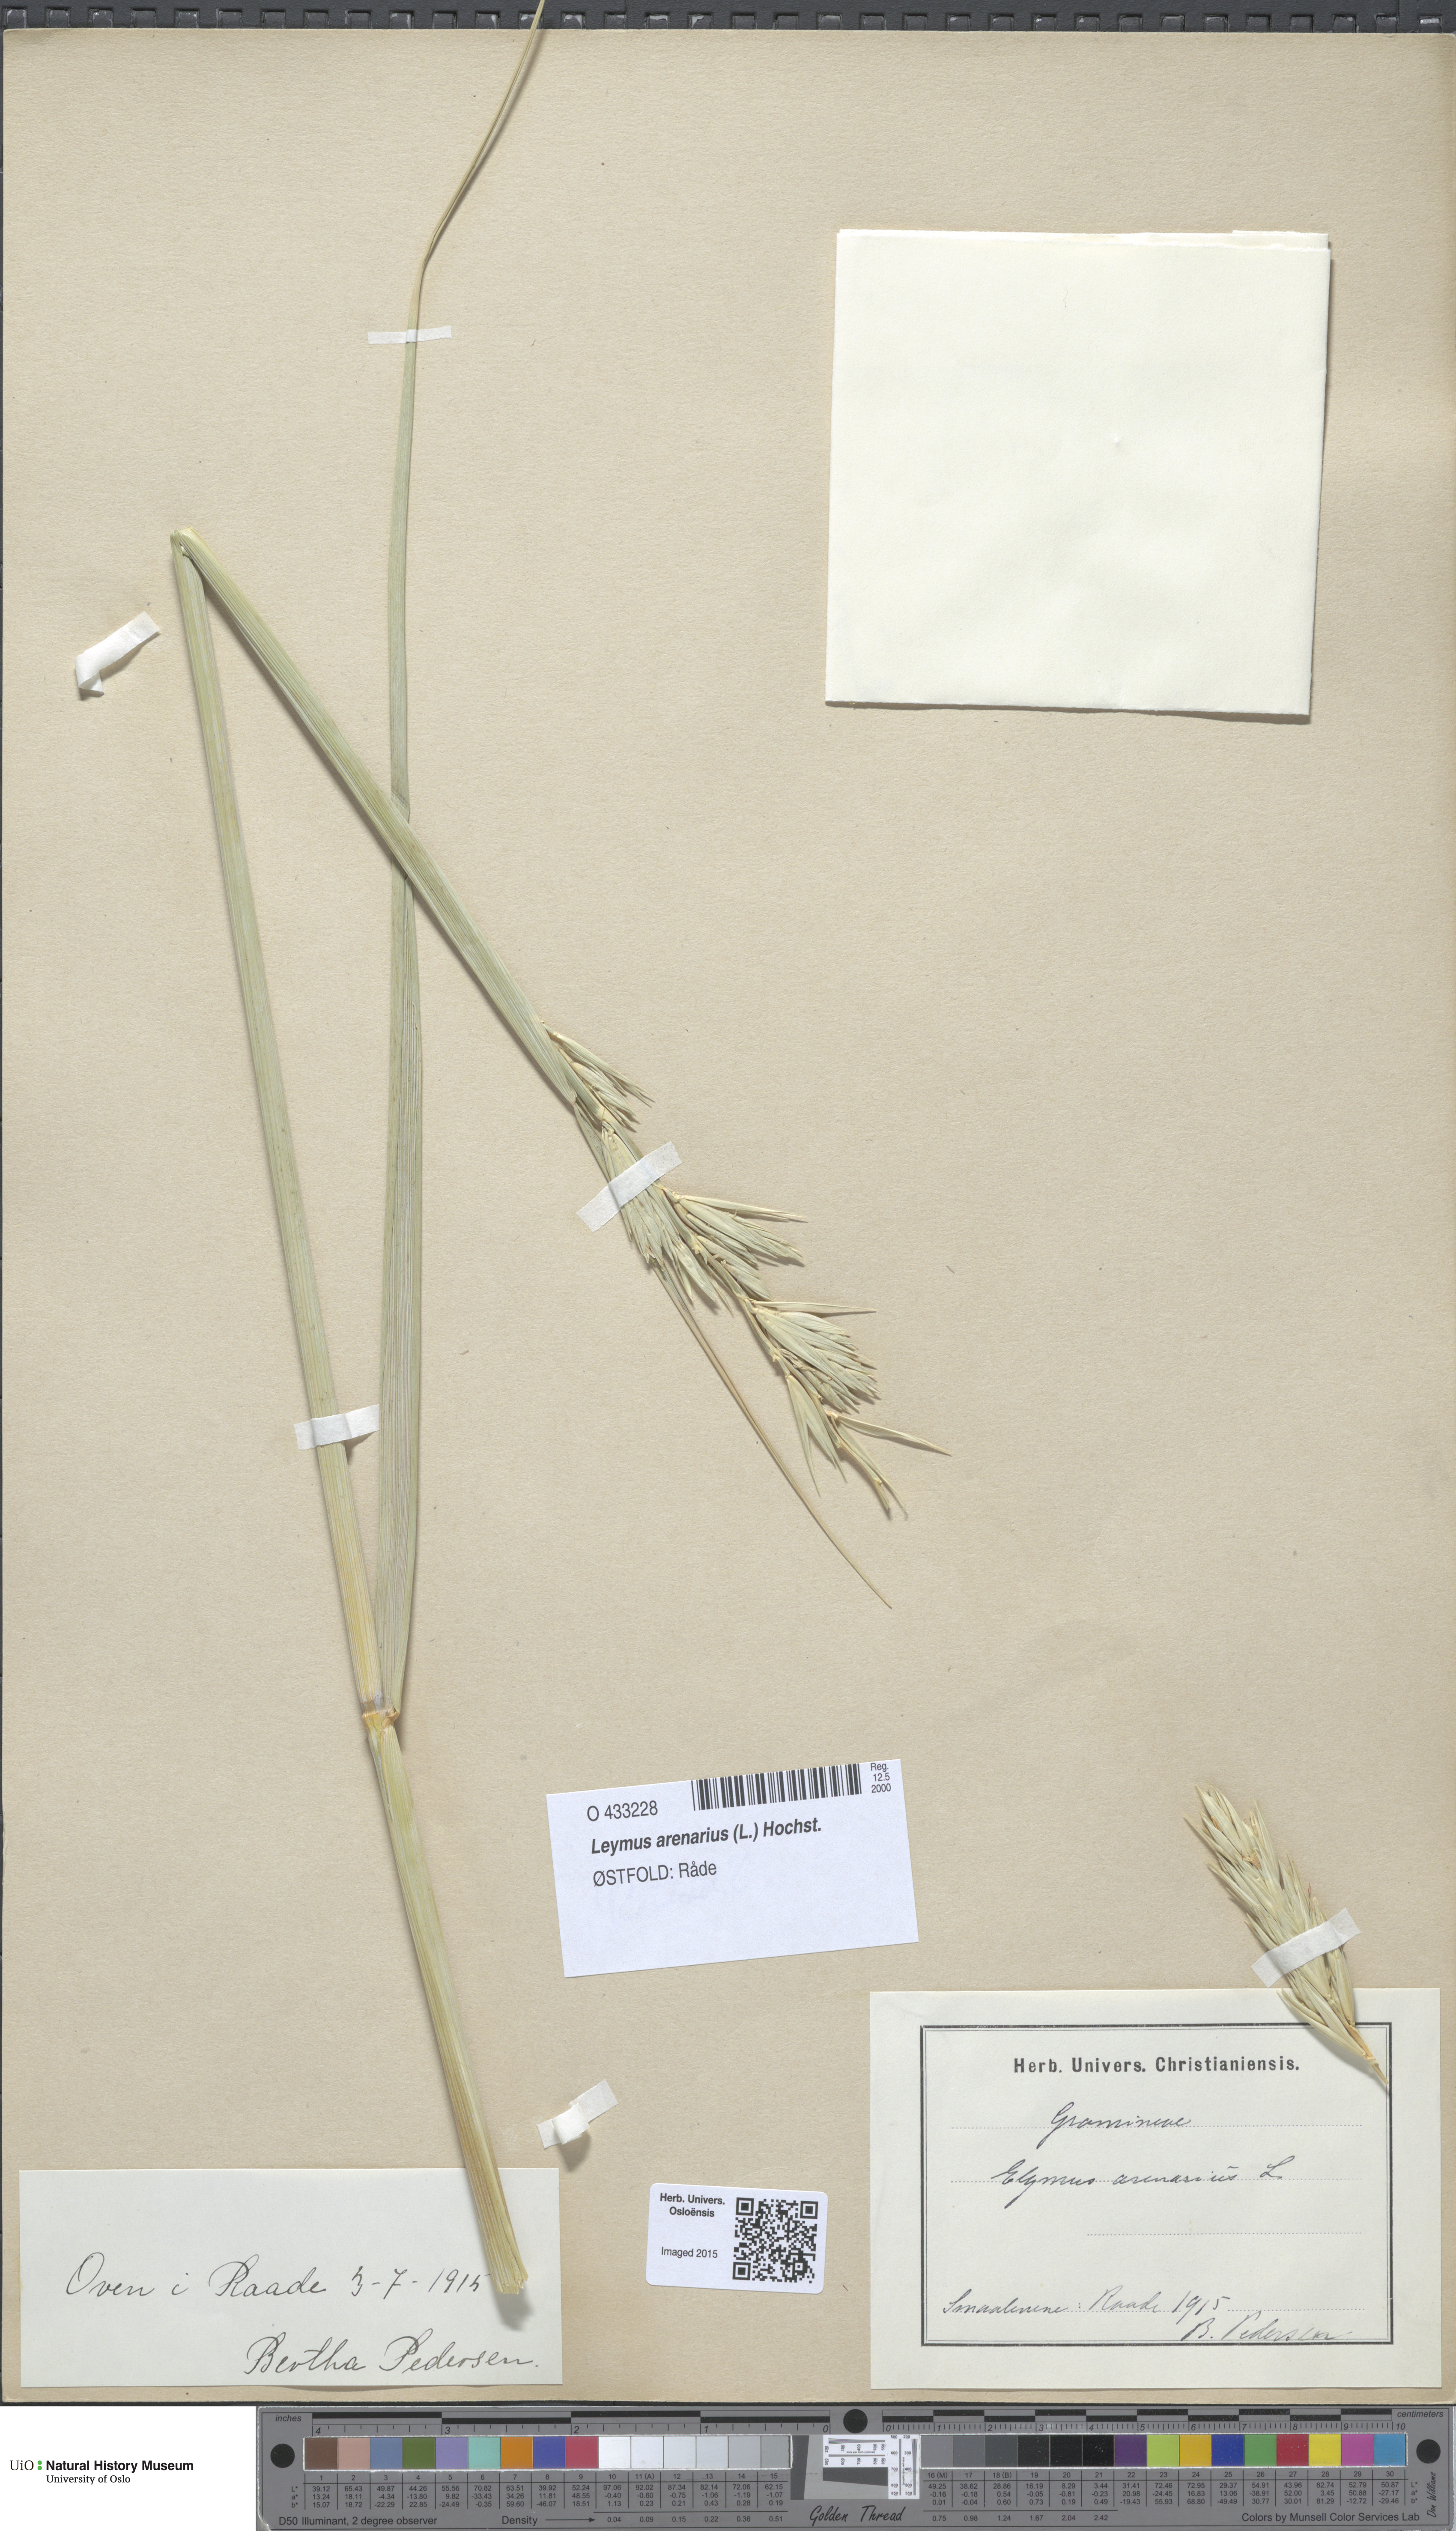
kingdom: Plantae
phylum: Tracheophyta
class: Liliopsida
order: Poales
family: Poaceae
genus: Leymus
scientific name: Leymus arenarius
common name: Lyme-grass
